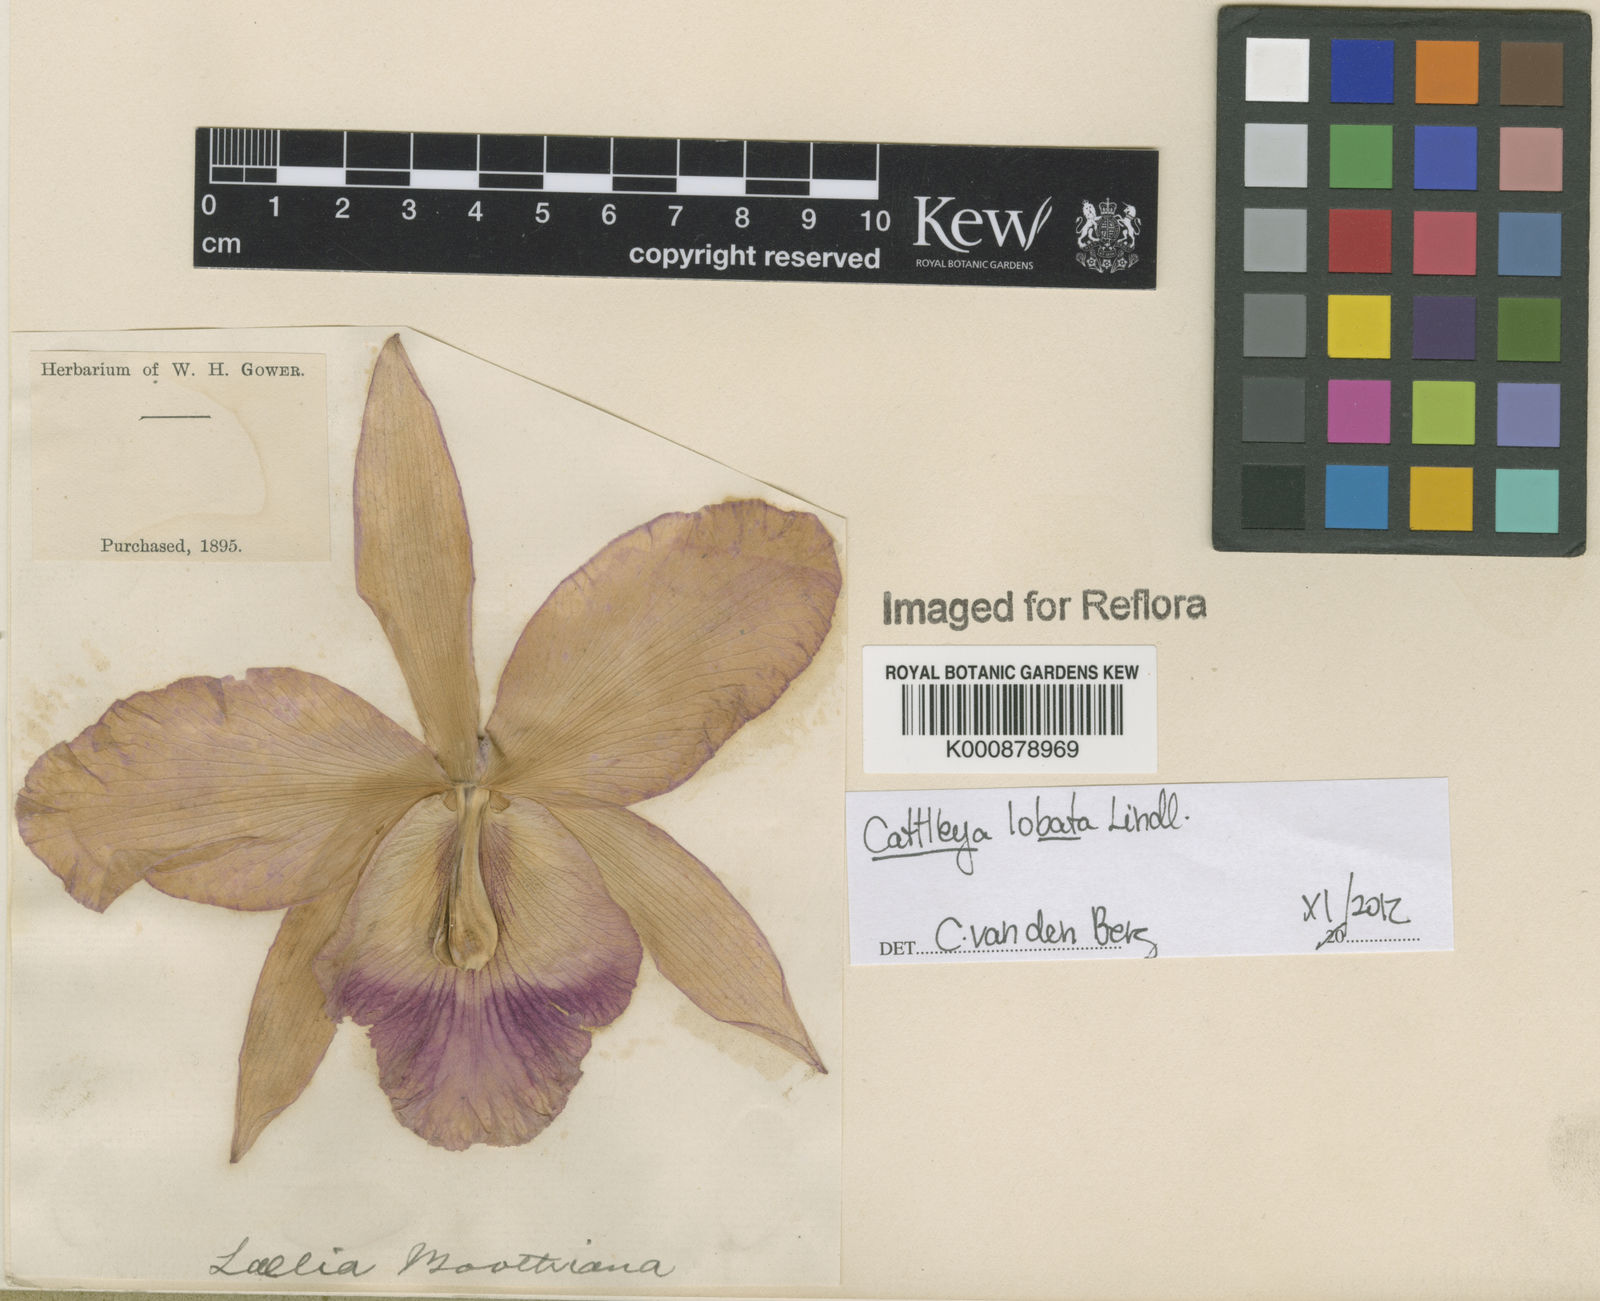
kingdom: Plantae
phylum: Tracheophyta
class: Liliopsida
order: Asparagales
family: Orchidaceae
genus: Cattleya
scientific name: Cattleya lobata
